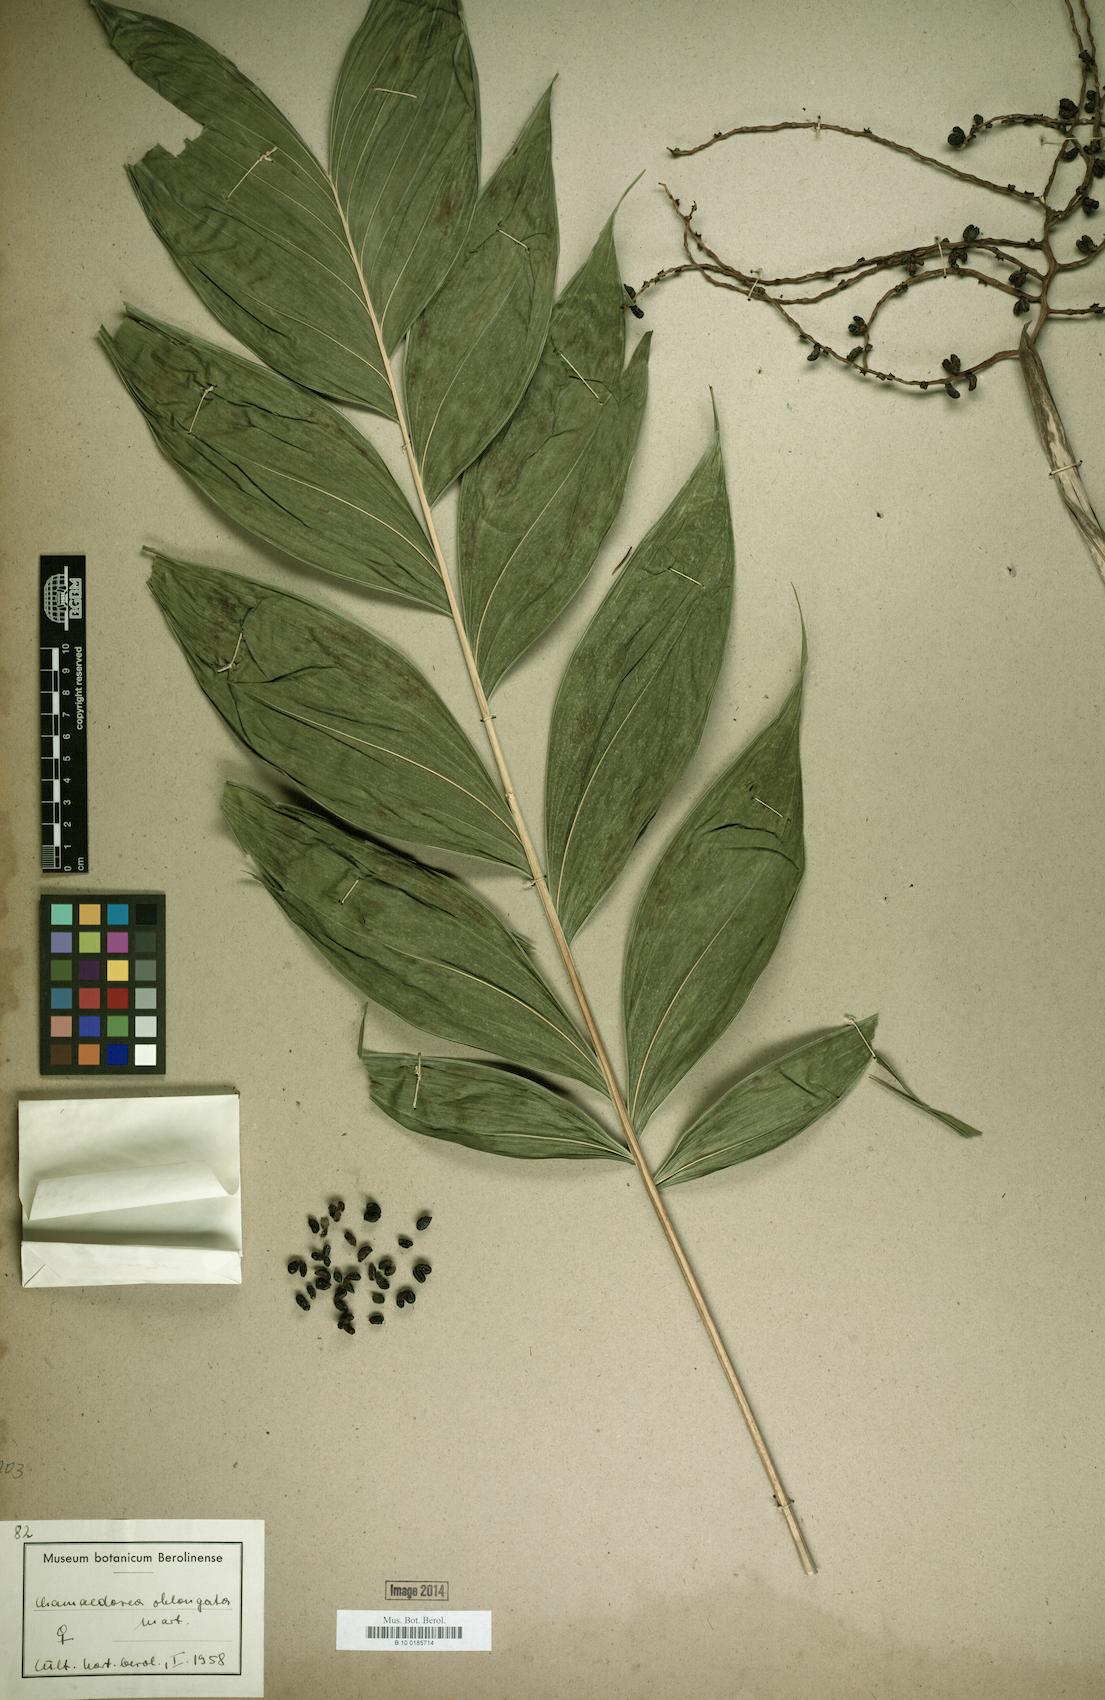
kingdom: Plantae
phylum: Tracheophyta
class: Liliopsida
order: Arecales
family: Arecaceae
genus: Chamaedorea
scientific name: Chamaedorea oblongata
